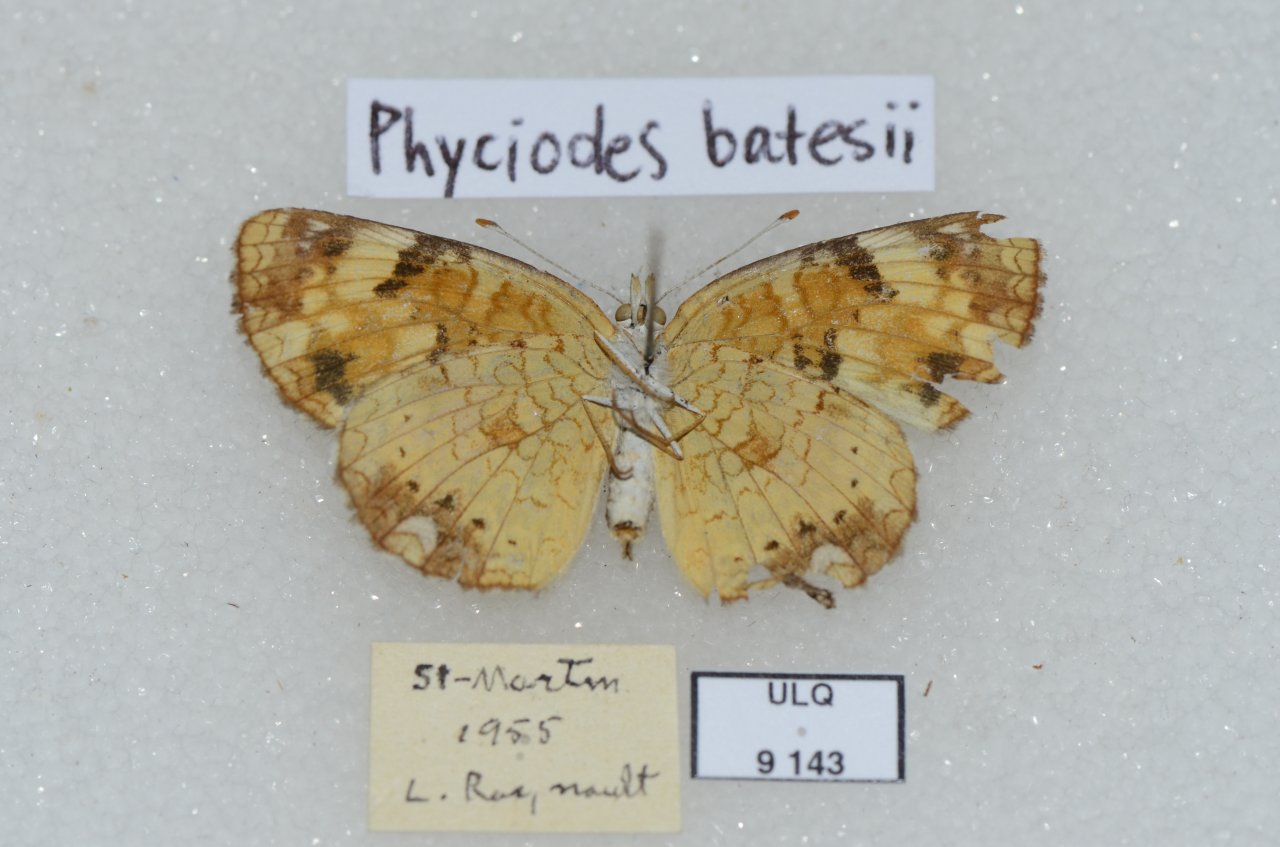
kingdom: Animalia
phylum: Arthropoda
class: Insecta
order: Lepidoptera
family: Nymphalidae
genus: Phyciodes
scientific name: Phyciodes tharos
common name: Northern Crescent
